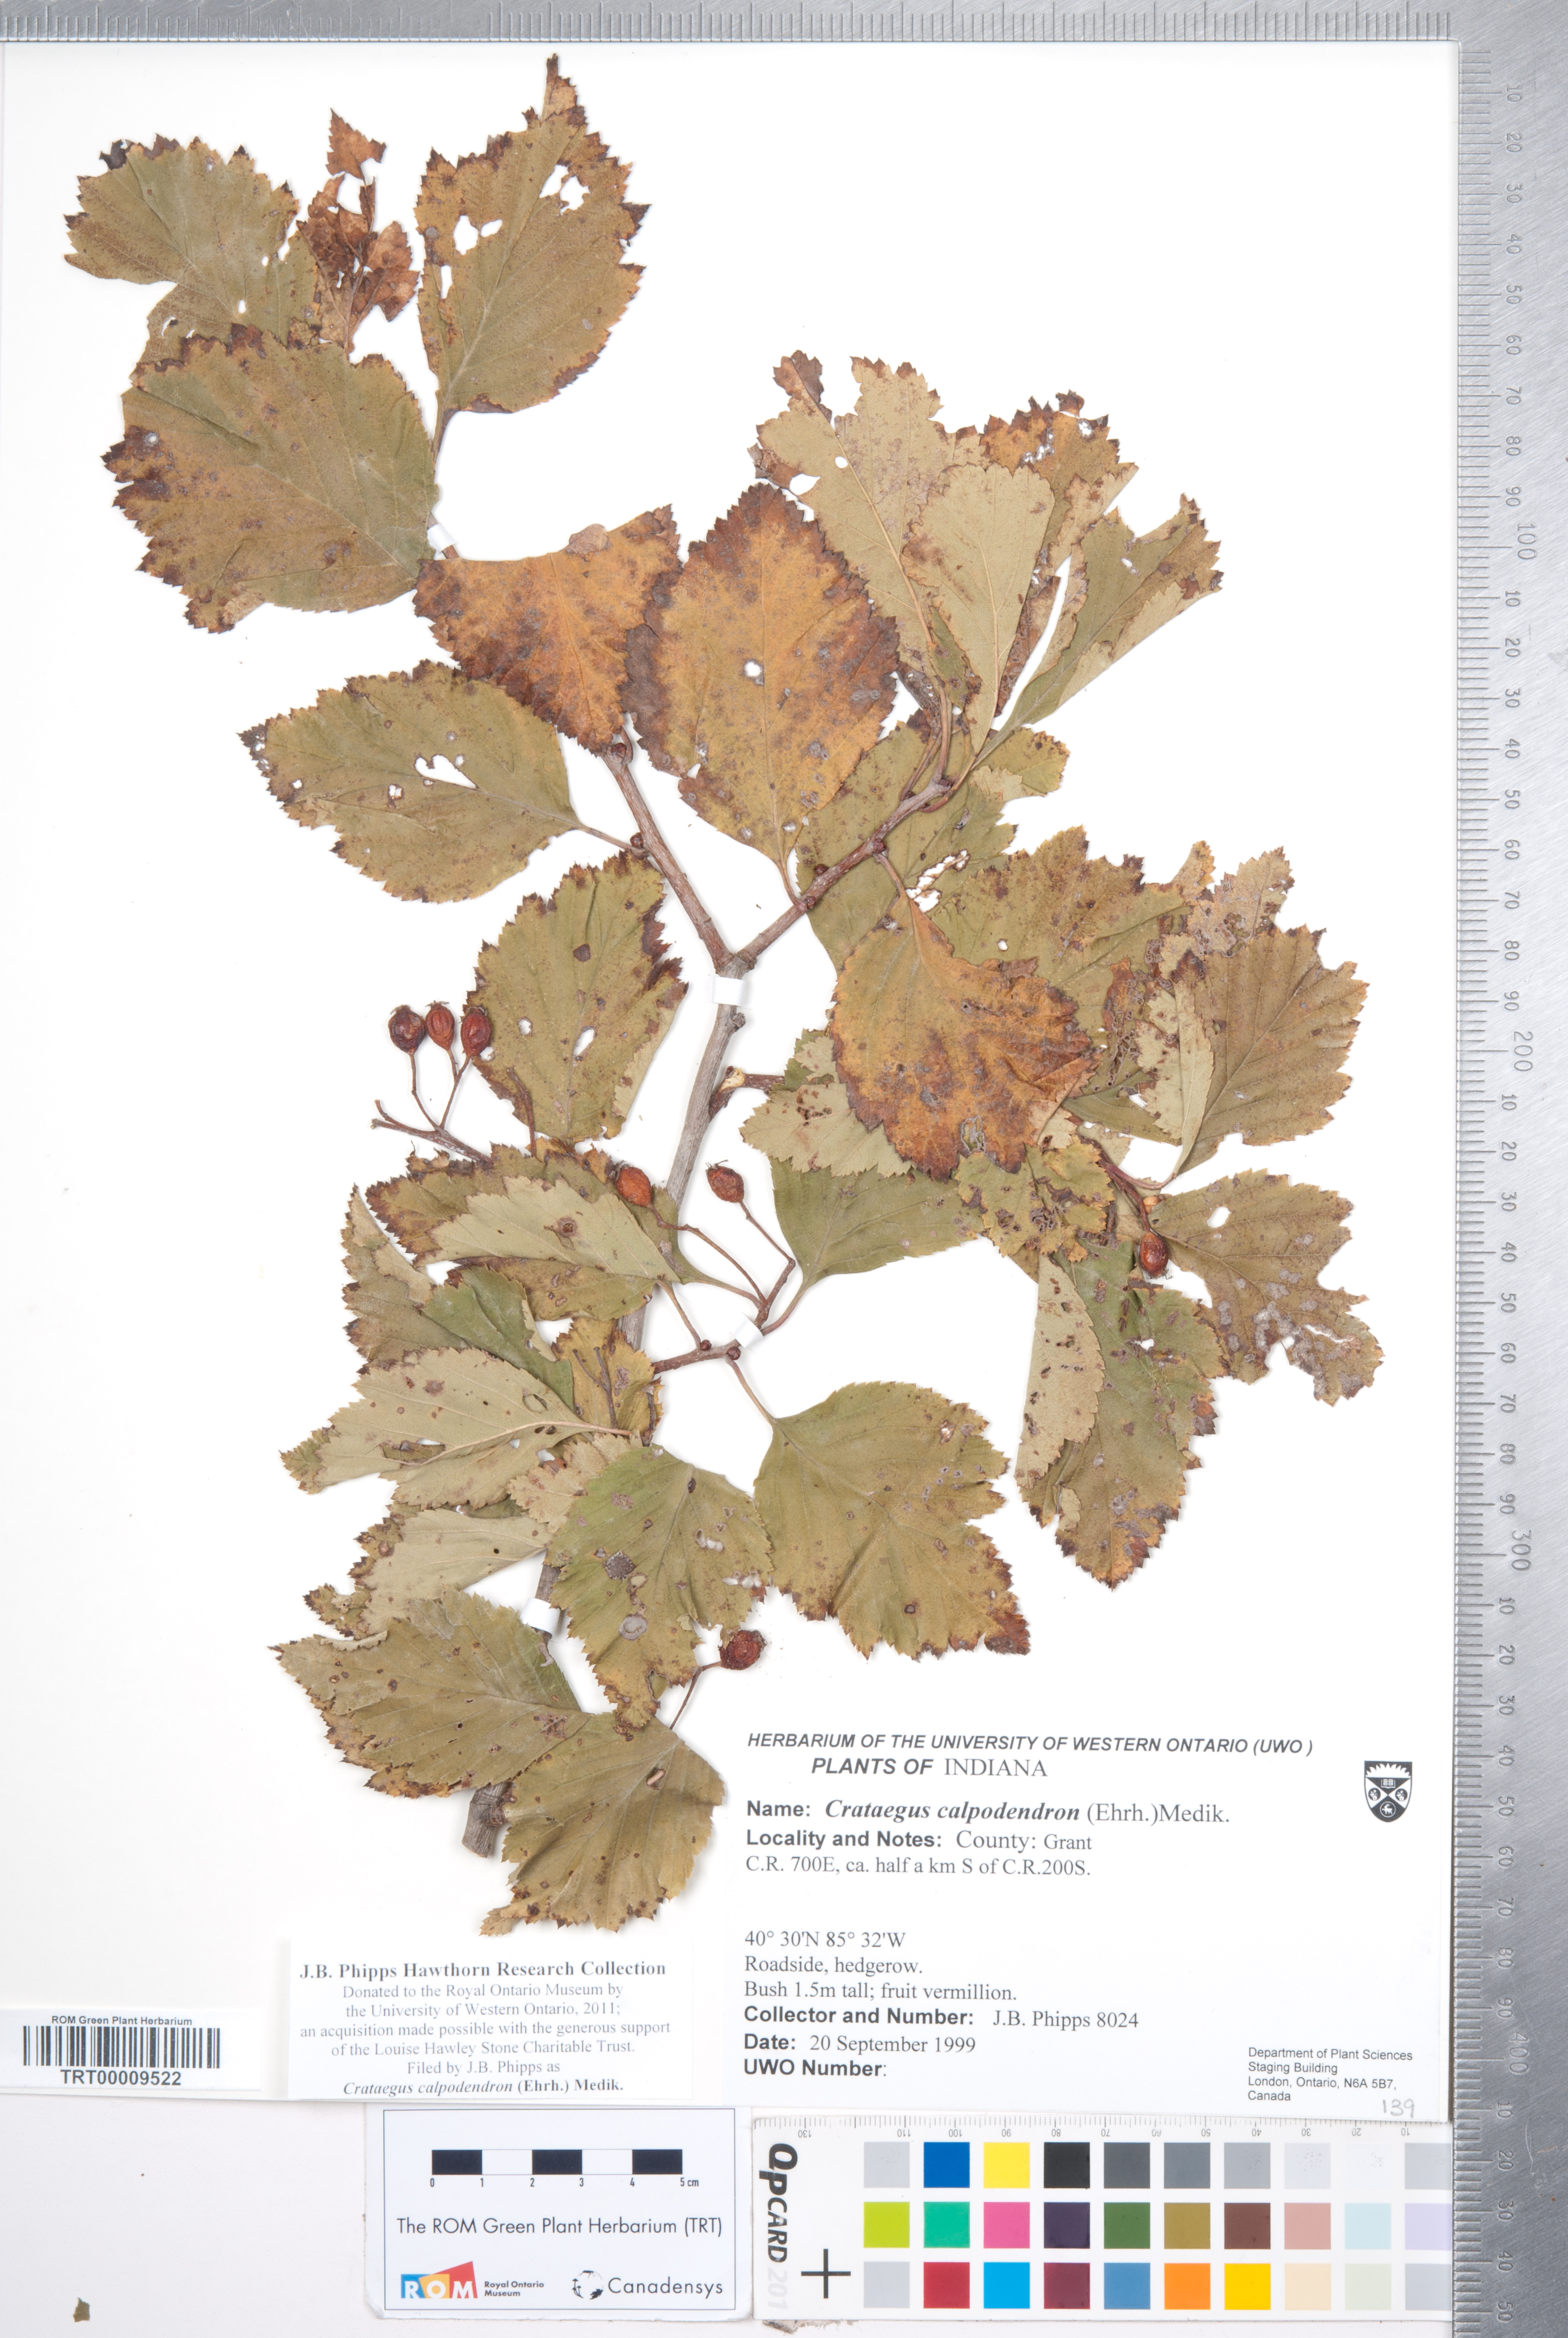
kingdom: Plantae
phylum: Tracheophyta
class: Magnoliopsida
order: Rosales
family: Rosaceae
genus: Crataegus
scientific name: Crataegus calpodendron
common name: Pear hawthorn
